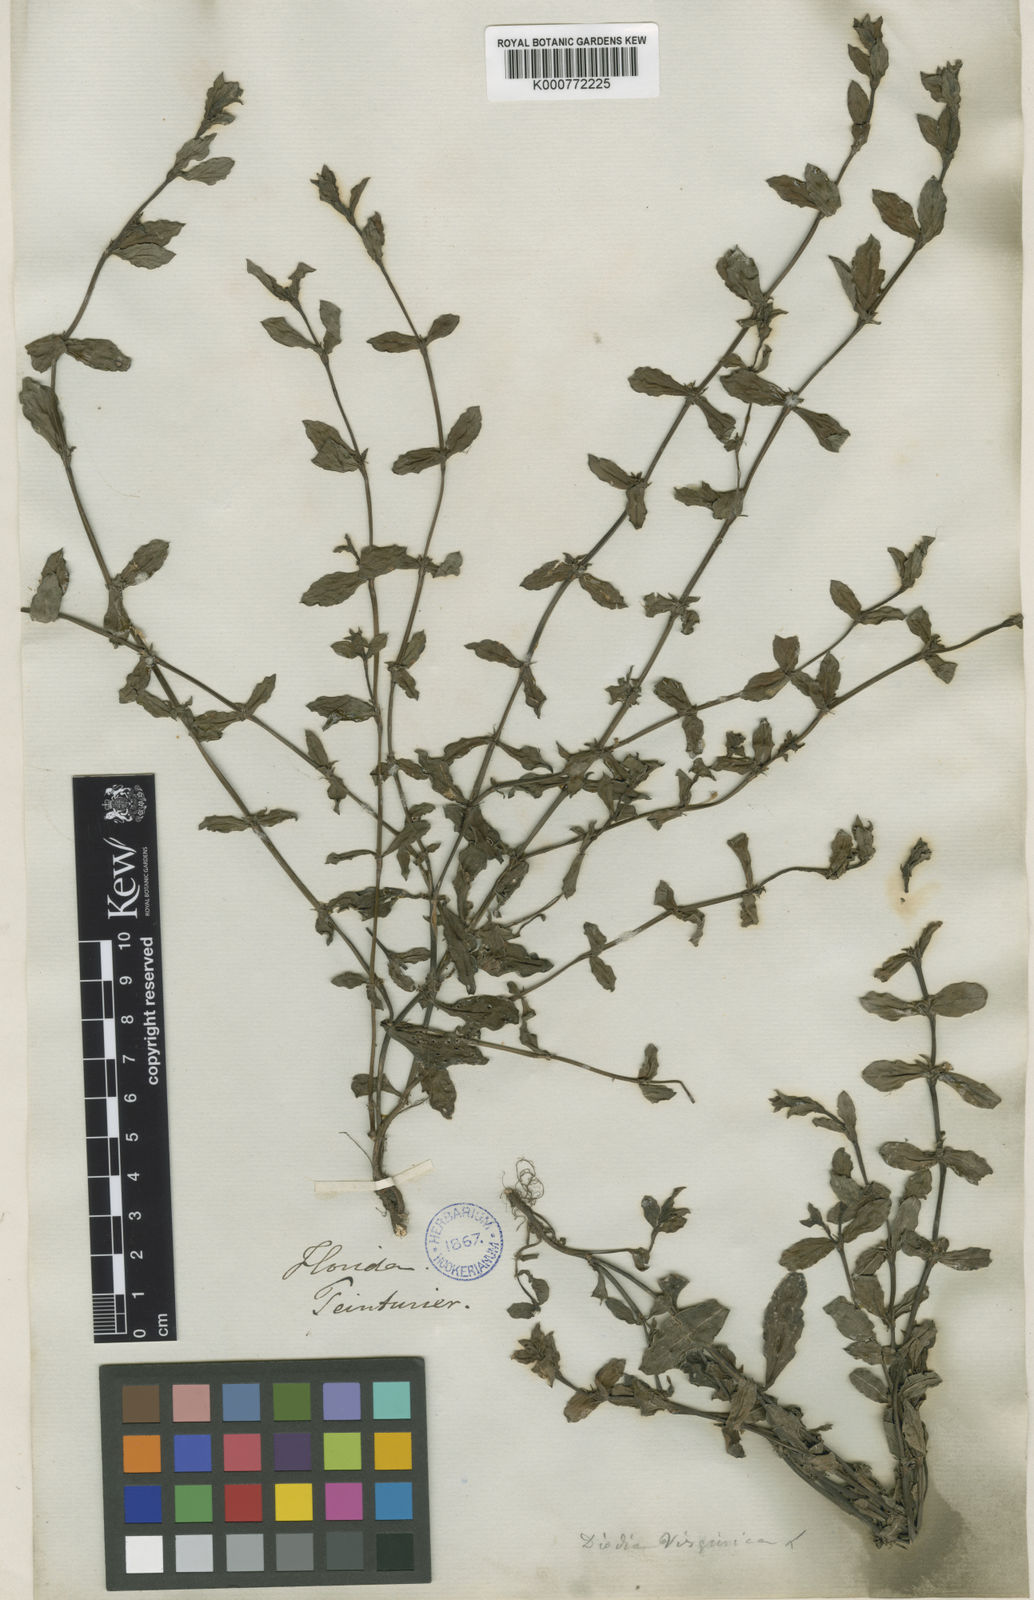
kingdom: Plantae
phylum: Tracheophyta
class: Magnoliopsida
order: Gentianales
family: Rubiaceae
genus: Diodia
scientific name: Diodia virginiana
